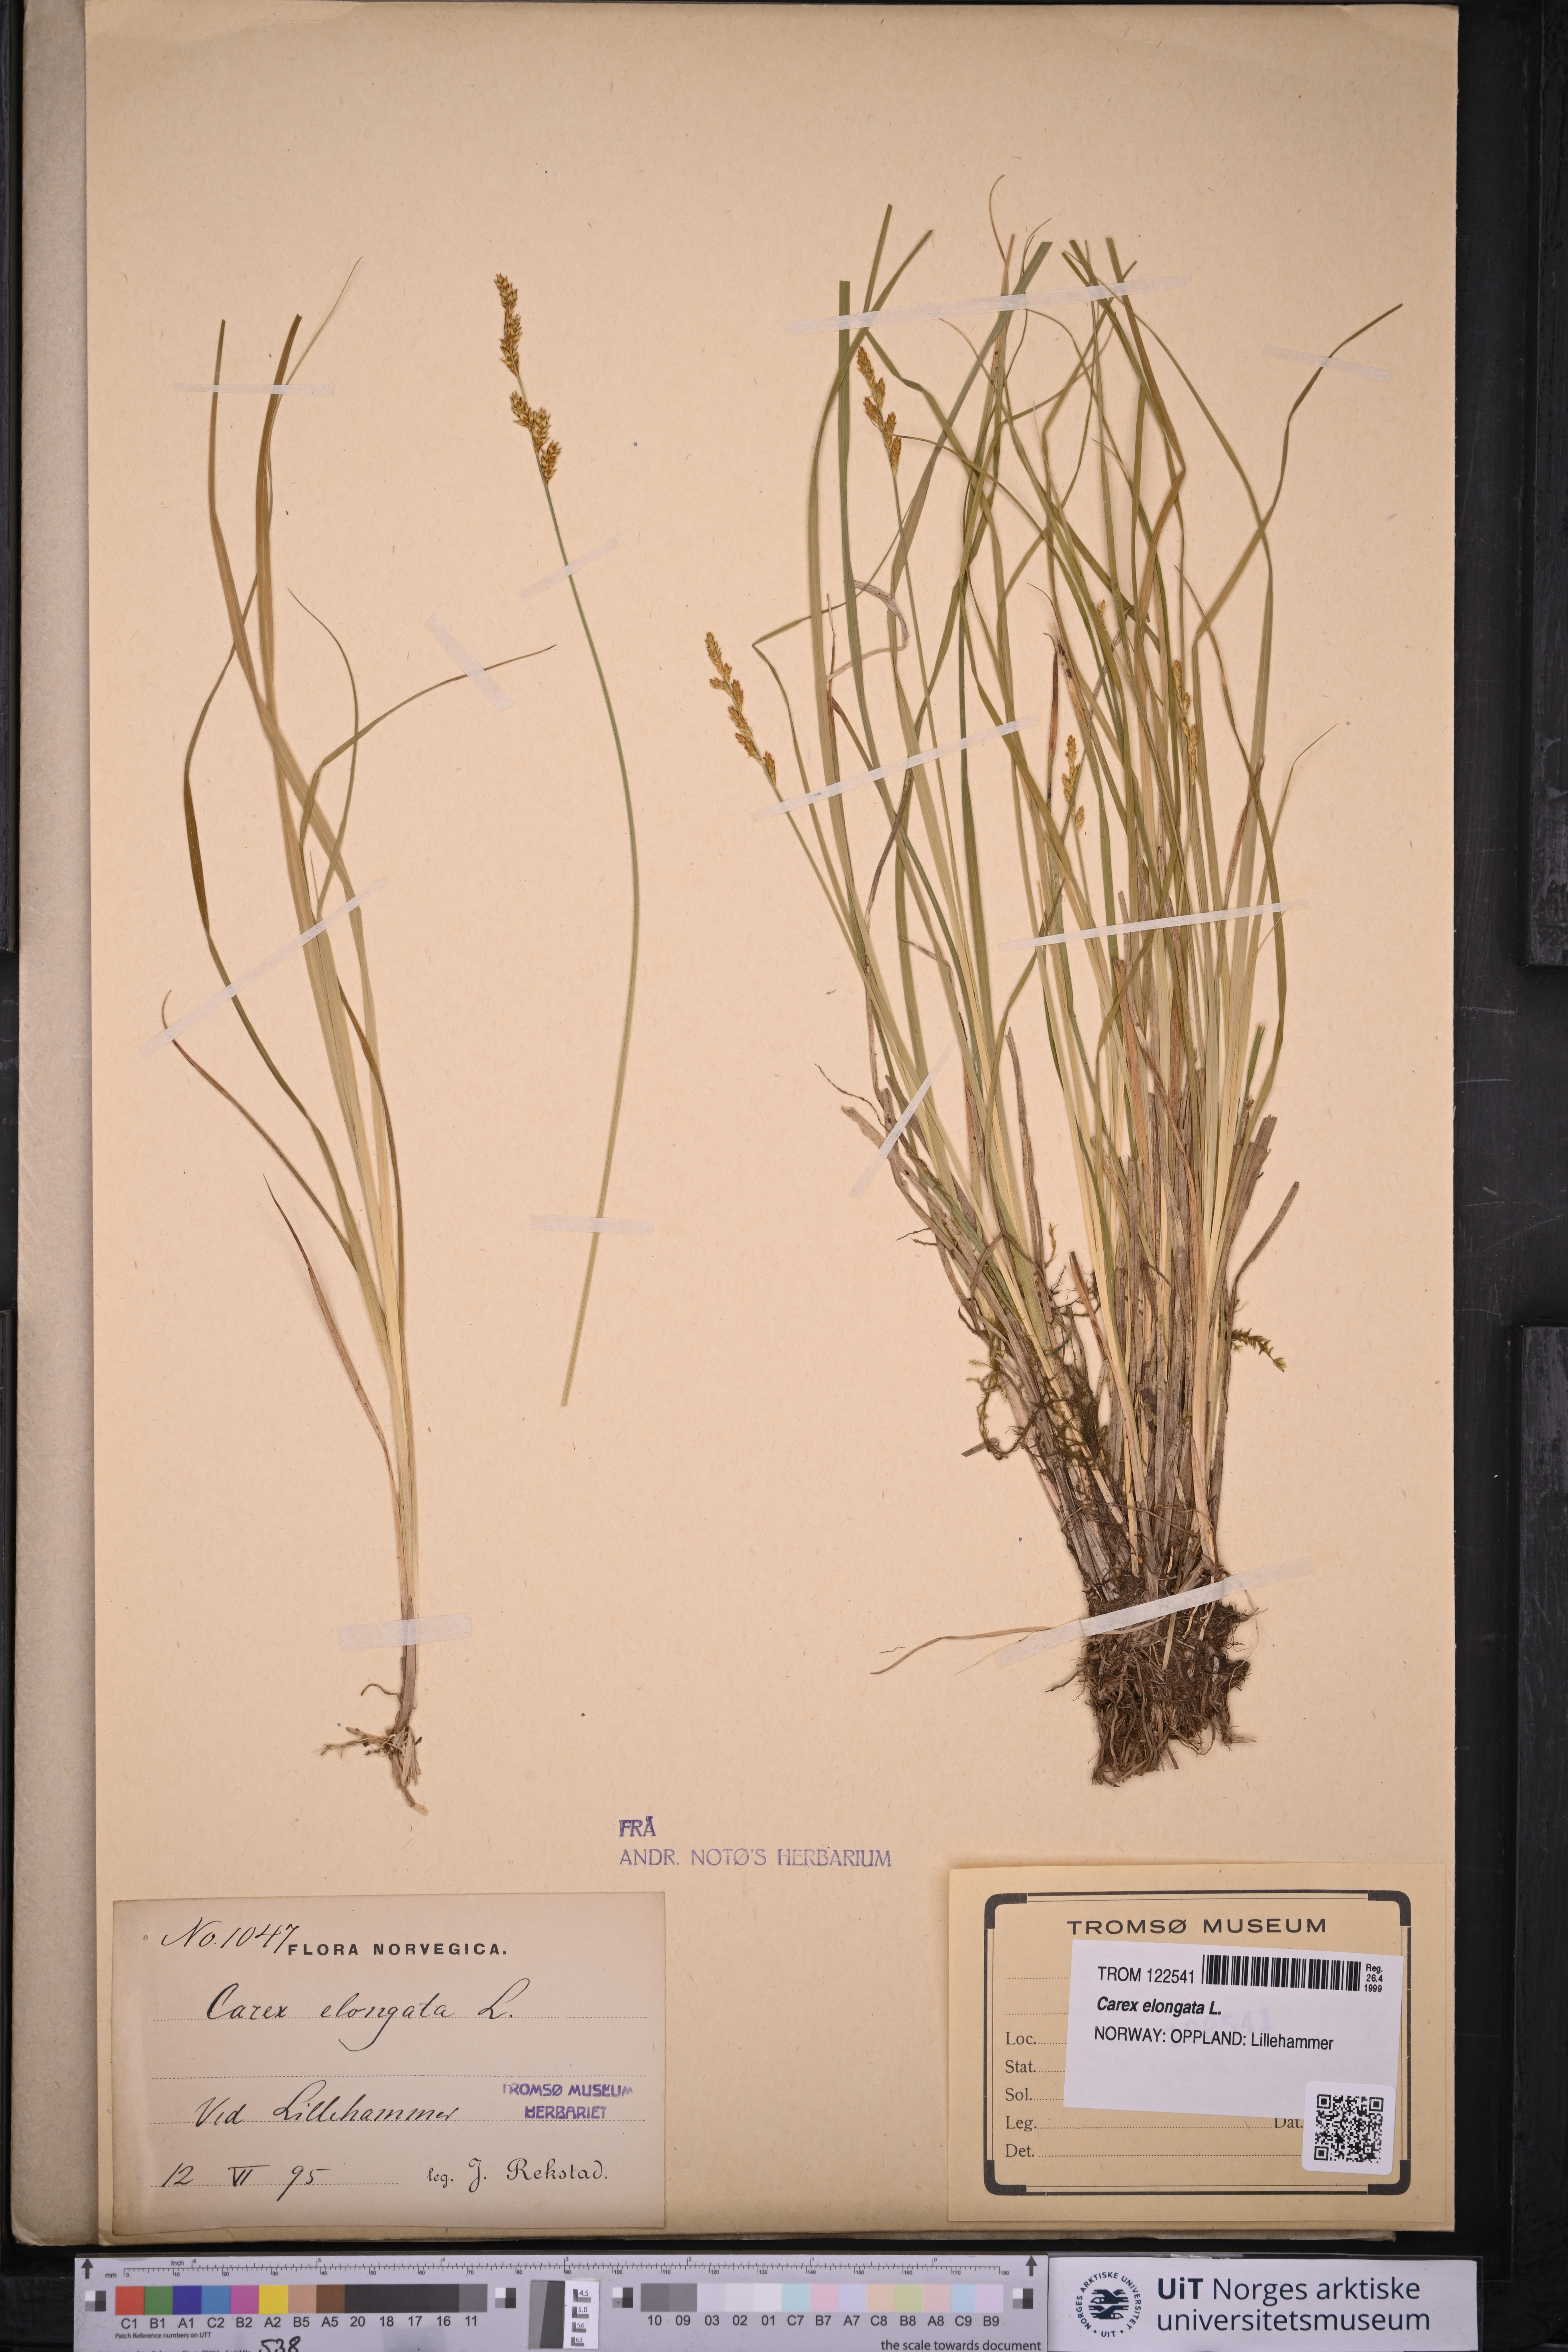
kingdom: Plantae
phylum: Tracheophyta
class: Liliopsida
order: Poales
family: Cyperaceae
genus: Carex
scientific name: Carex elongata
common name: Elongated sedge
